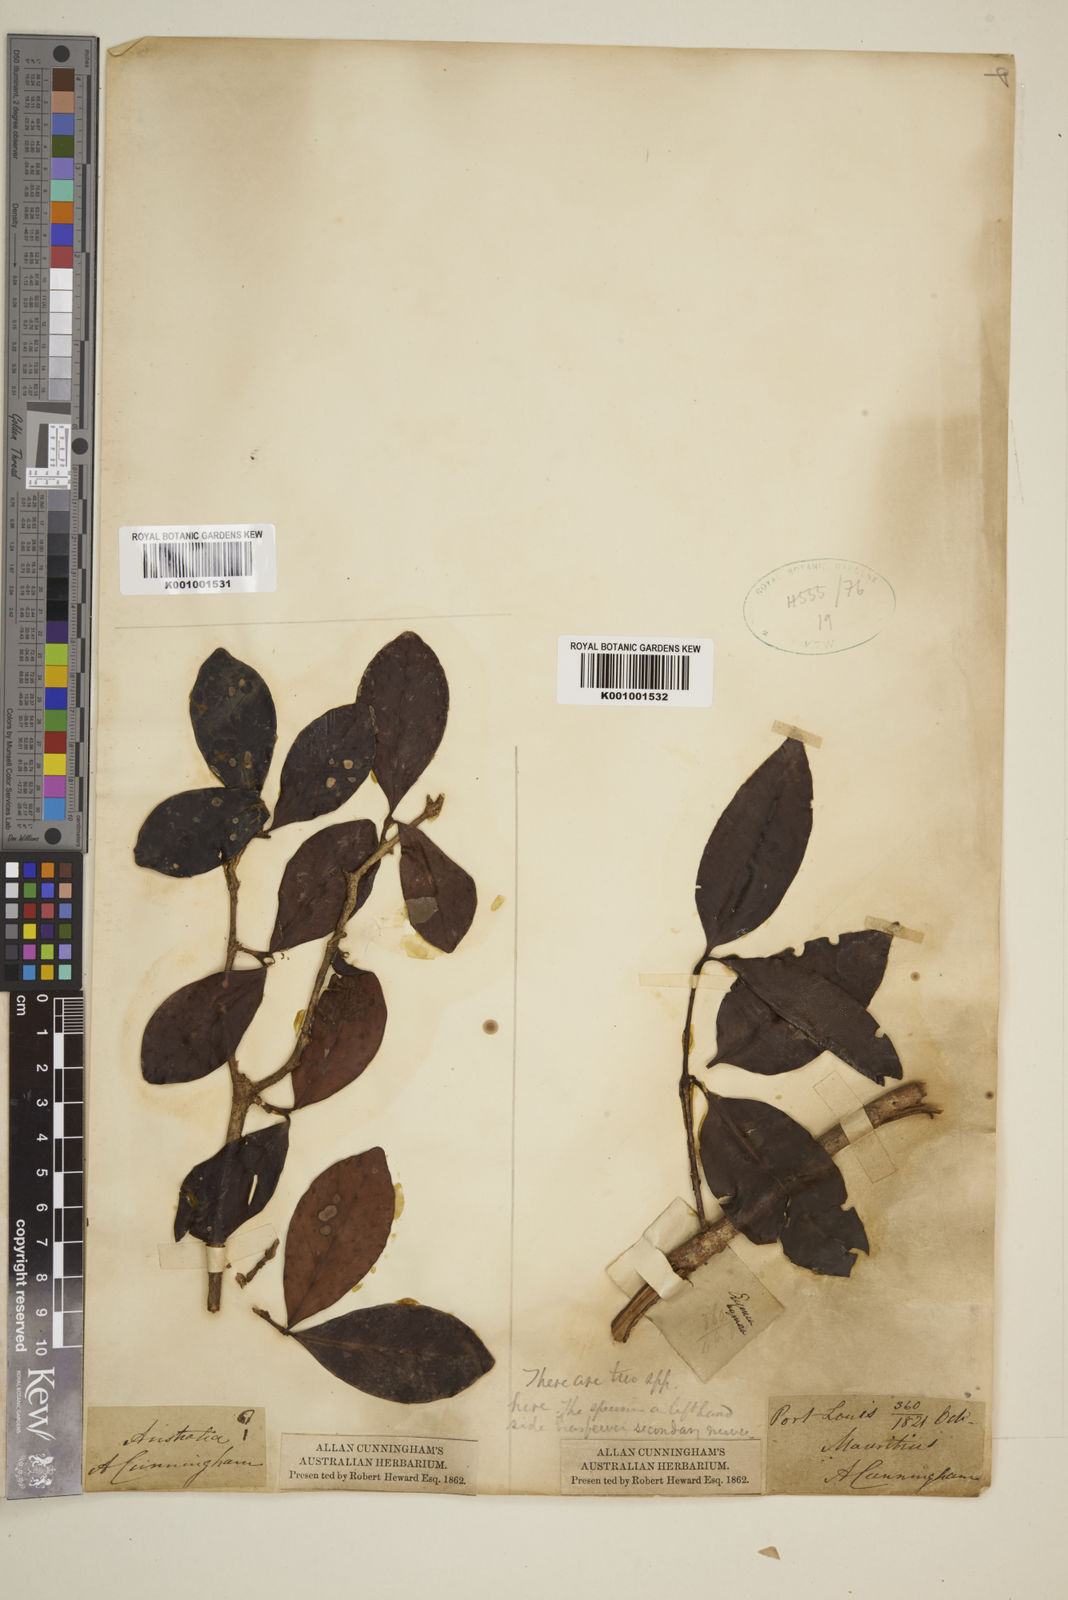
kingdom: Plantae
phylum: Tracheophyta
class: Magnoliopsida
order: Myrtales
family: Myrtaceae
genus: Eugenia
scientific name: Eugenia
